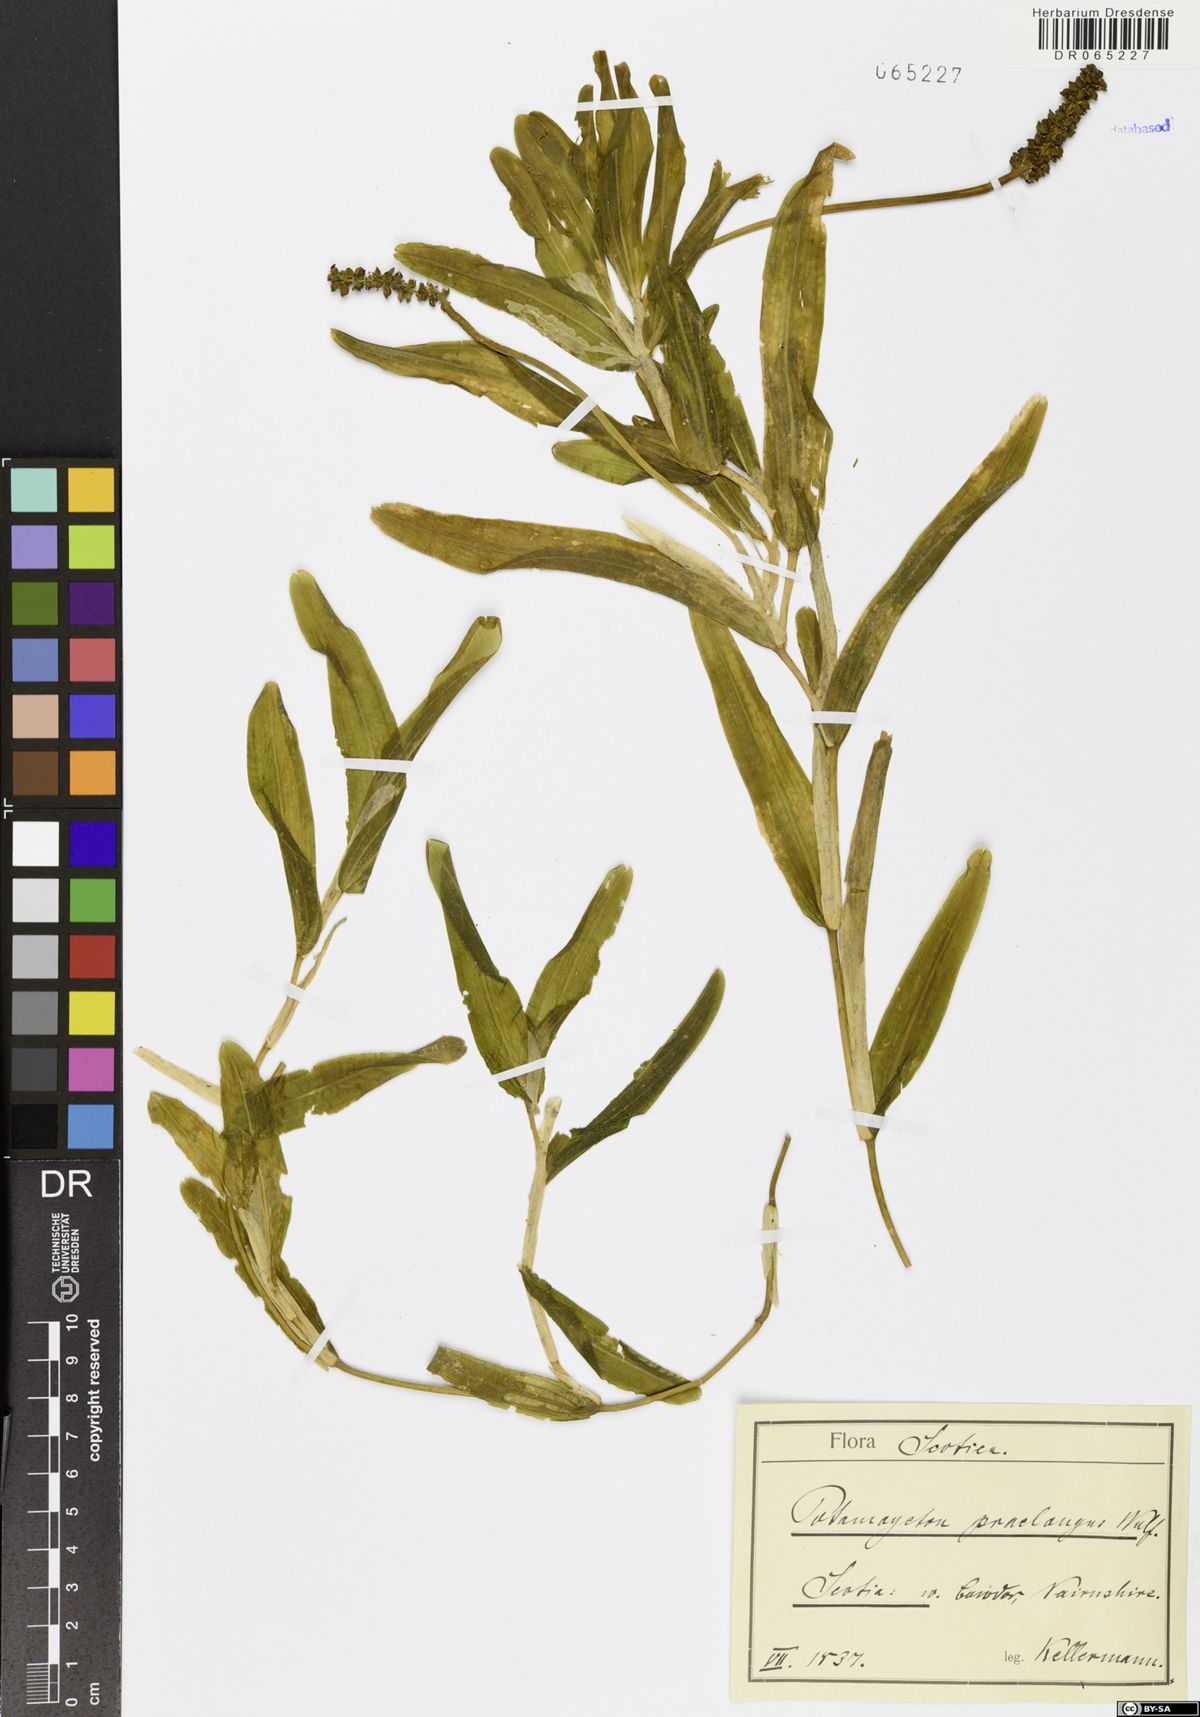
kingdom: Plantae
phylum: Tracheophyta
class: Liliopsida
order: Alismatales
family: Potamogetonaceae
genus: Potamogeton
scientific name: Potamogeton praelongus
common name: Long-stalked pondweed
